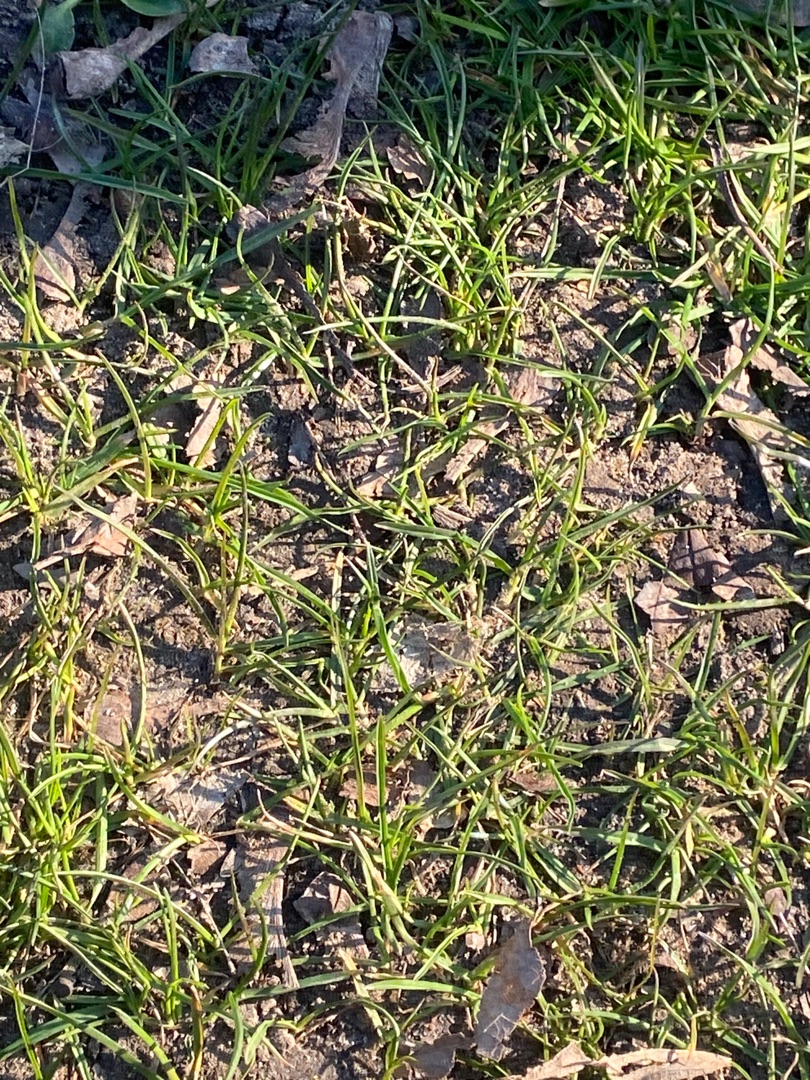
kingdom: Animalia
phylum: Chordata
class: Mammalia
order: Rodentia
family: Sciuridae
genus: Sciurus
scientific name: Sciurus vulgaris
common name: Egern
